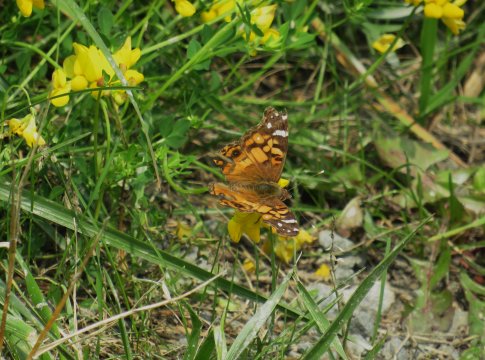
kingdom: Animalia
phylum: Arthropoda
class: Insecta
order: Lepidoptera
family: Nymphalidae
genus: Vanessa
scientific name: Vanessa virginiensis
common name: American Lady
